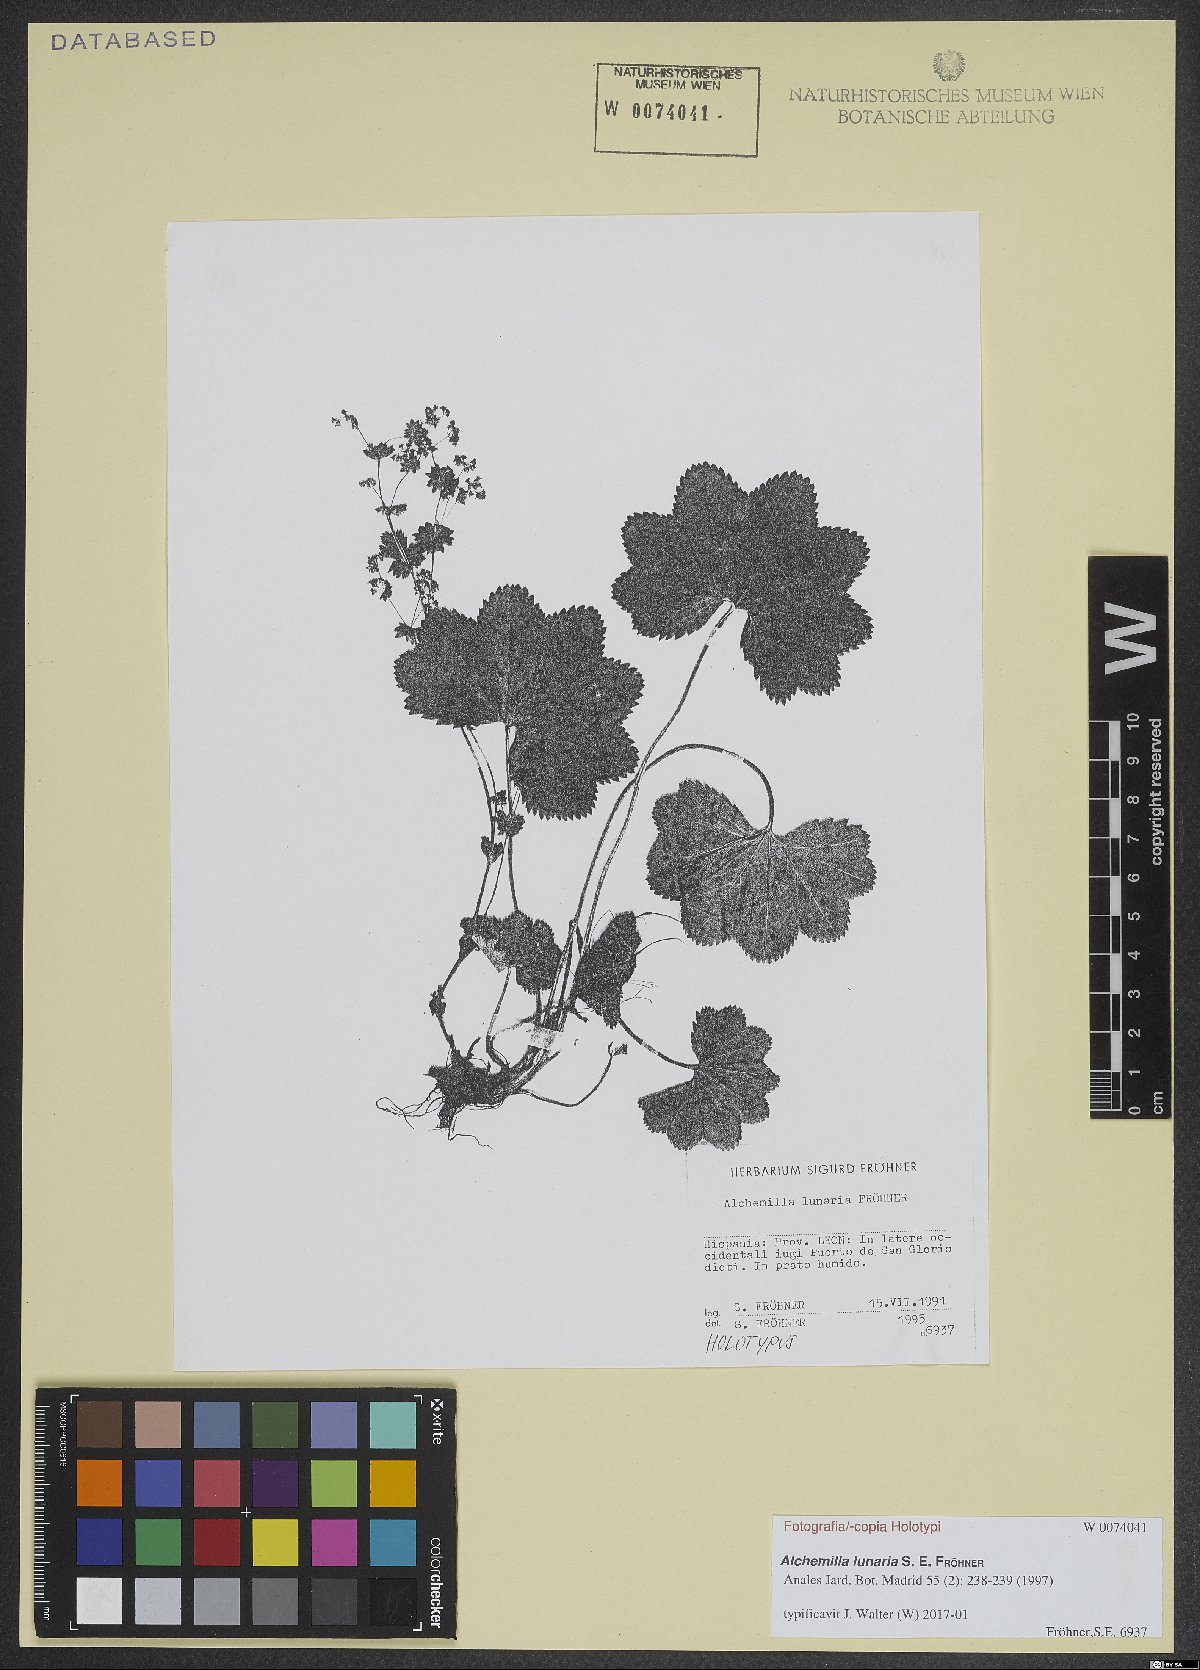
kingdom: Plantae
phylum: Tracheophyta
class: Magnoliopsida
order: Rosales
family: Rosaceae
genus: Alchemilla
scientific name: Alchemilla lunaria
